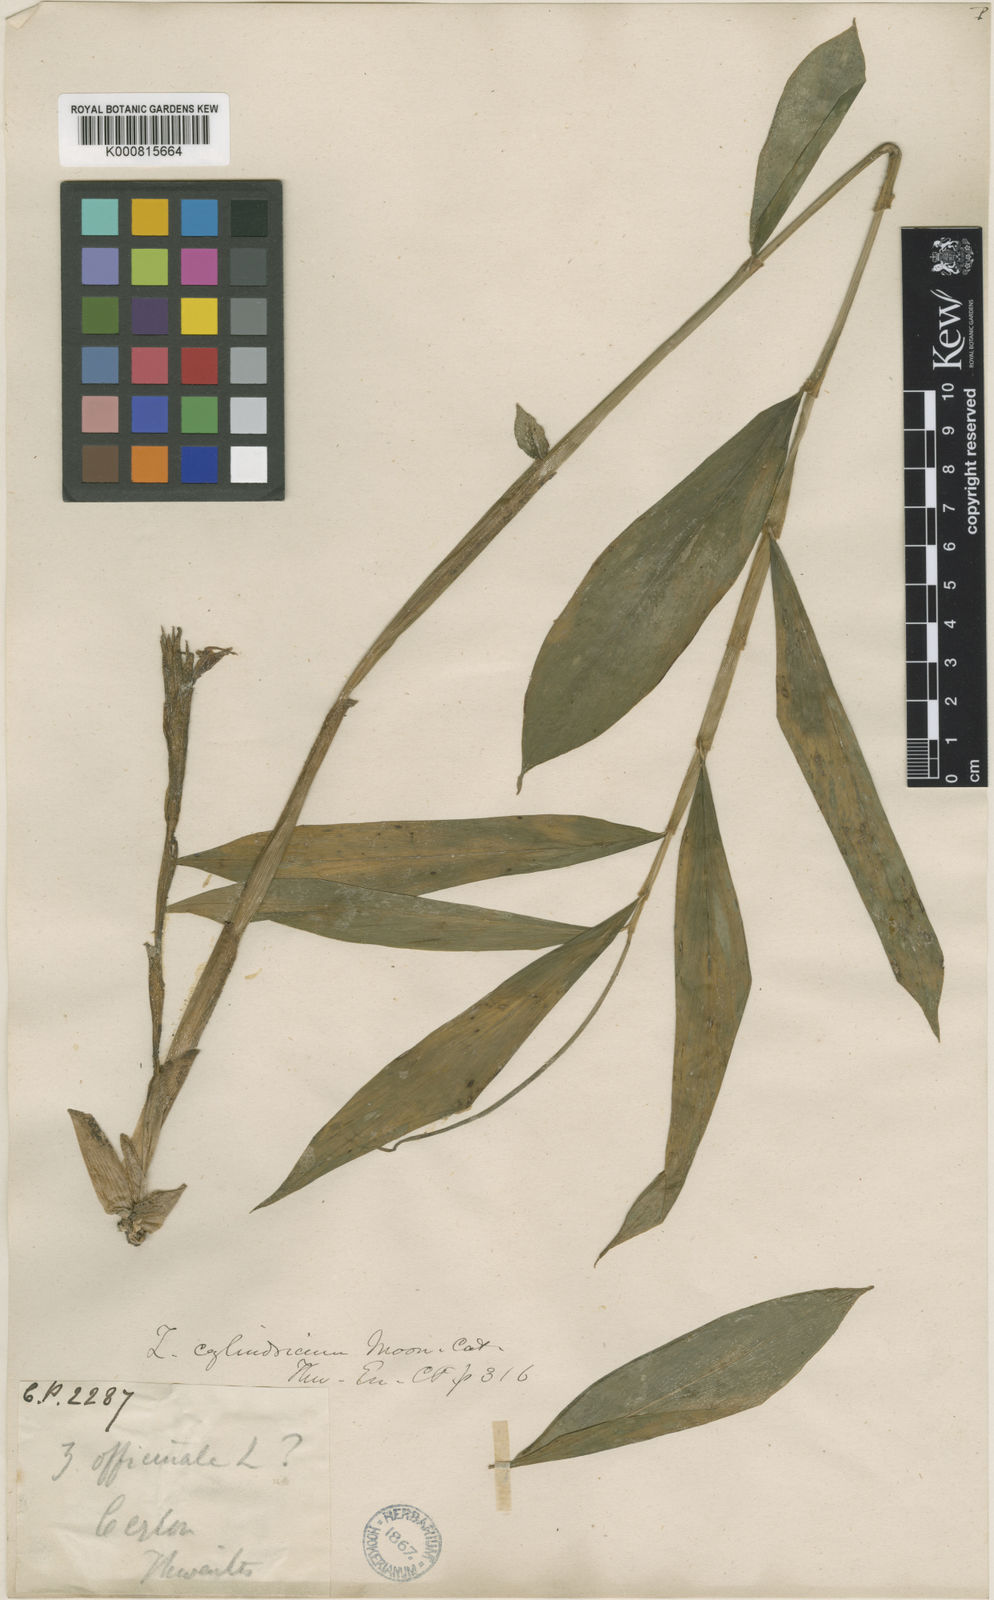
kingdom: Plantae
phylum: Tracheophyta
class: Liliopsida
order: Zingiberales
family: Zingiberaceae
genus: Zingiber
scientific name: Zingiber
